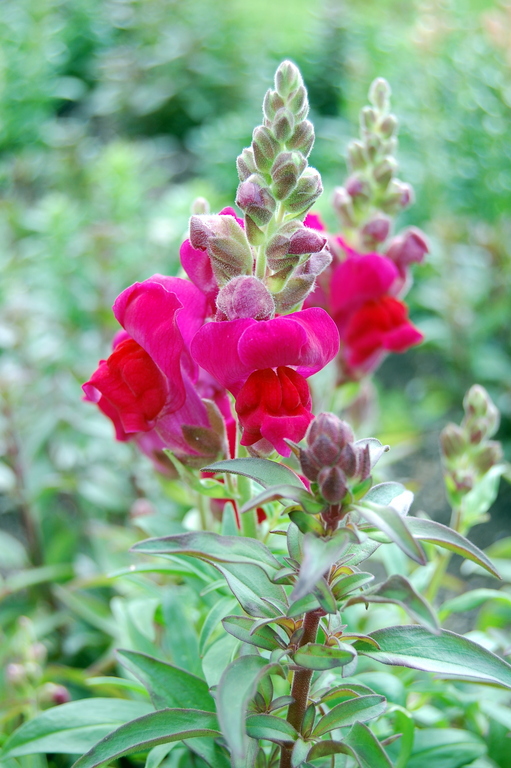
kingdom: Plantae
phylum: Tracheophyta
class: Magnoliopsida
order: Lamiales
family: Plantaginaceae
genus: Antirrhinum
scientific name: Antirrhinum majus
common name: Snapdragon
